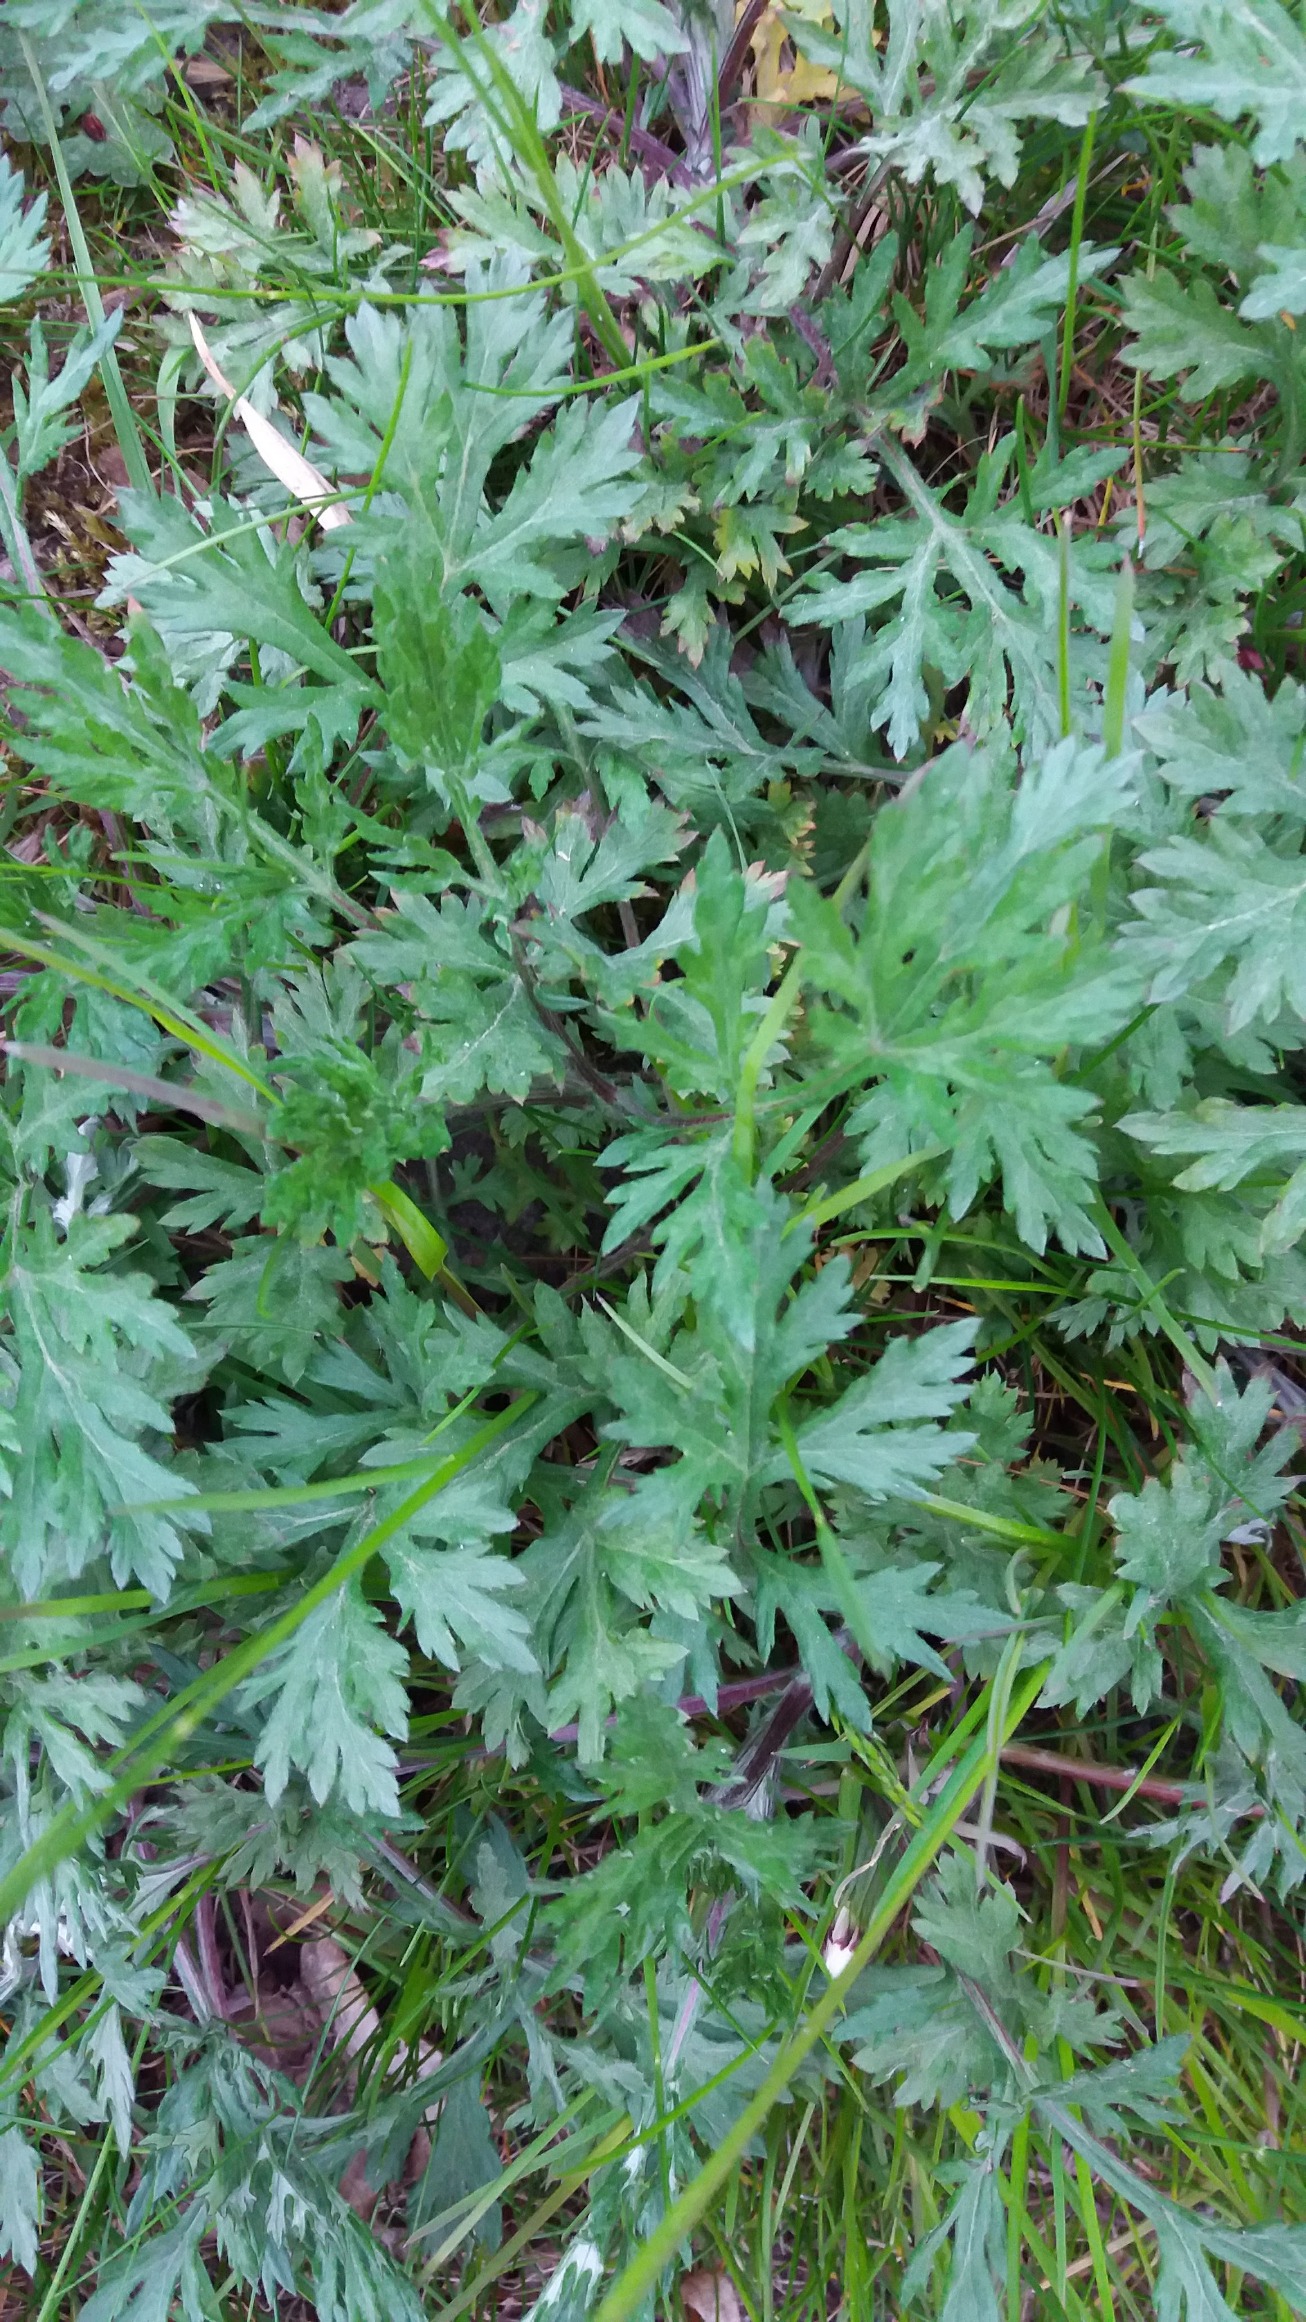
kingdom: Plantae
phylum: Tracheophyta
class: Magnoliopsida
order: Asterales
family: Asteraceae
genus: Artemisia
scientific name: Artemisia vulgaris
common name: Grå-bynke
